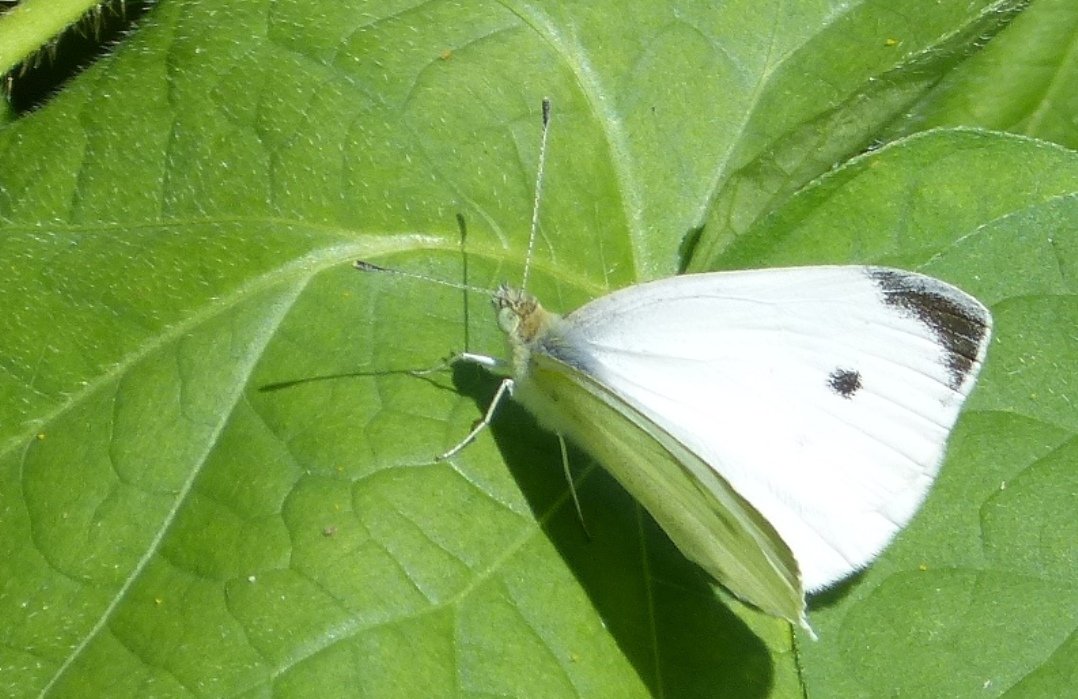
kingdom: Animalia
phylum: Arthropoda
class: Insecta
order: Lepidoptera
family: Pieridae
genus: Pieris
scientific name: Pieris rapae
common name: Cabbage White
